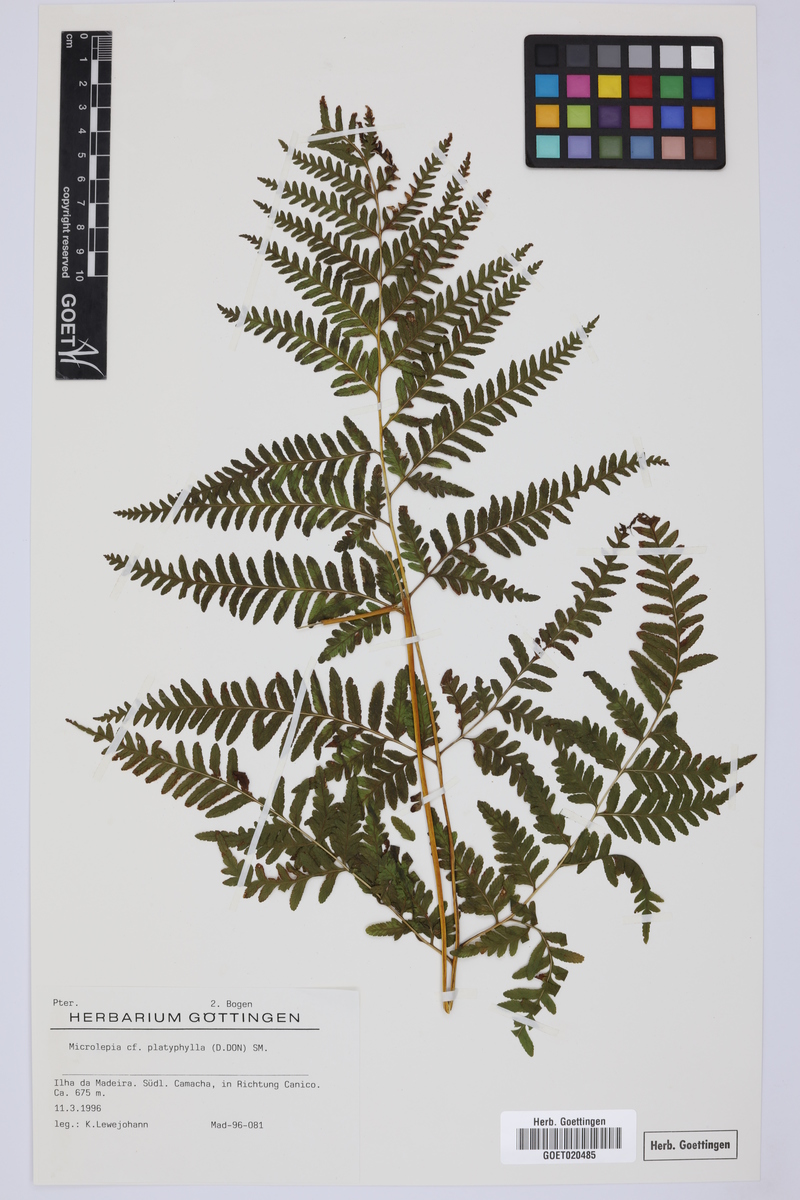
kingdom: Plantae
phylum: Tracheophyta
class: Polypodiopsida
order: Polypodiales
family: Dennstaedtiaceae
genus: Microlepia
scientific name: Microlepia platyphylla
